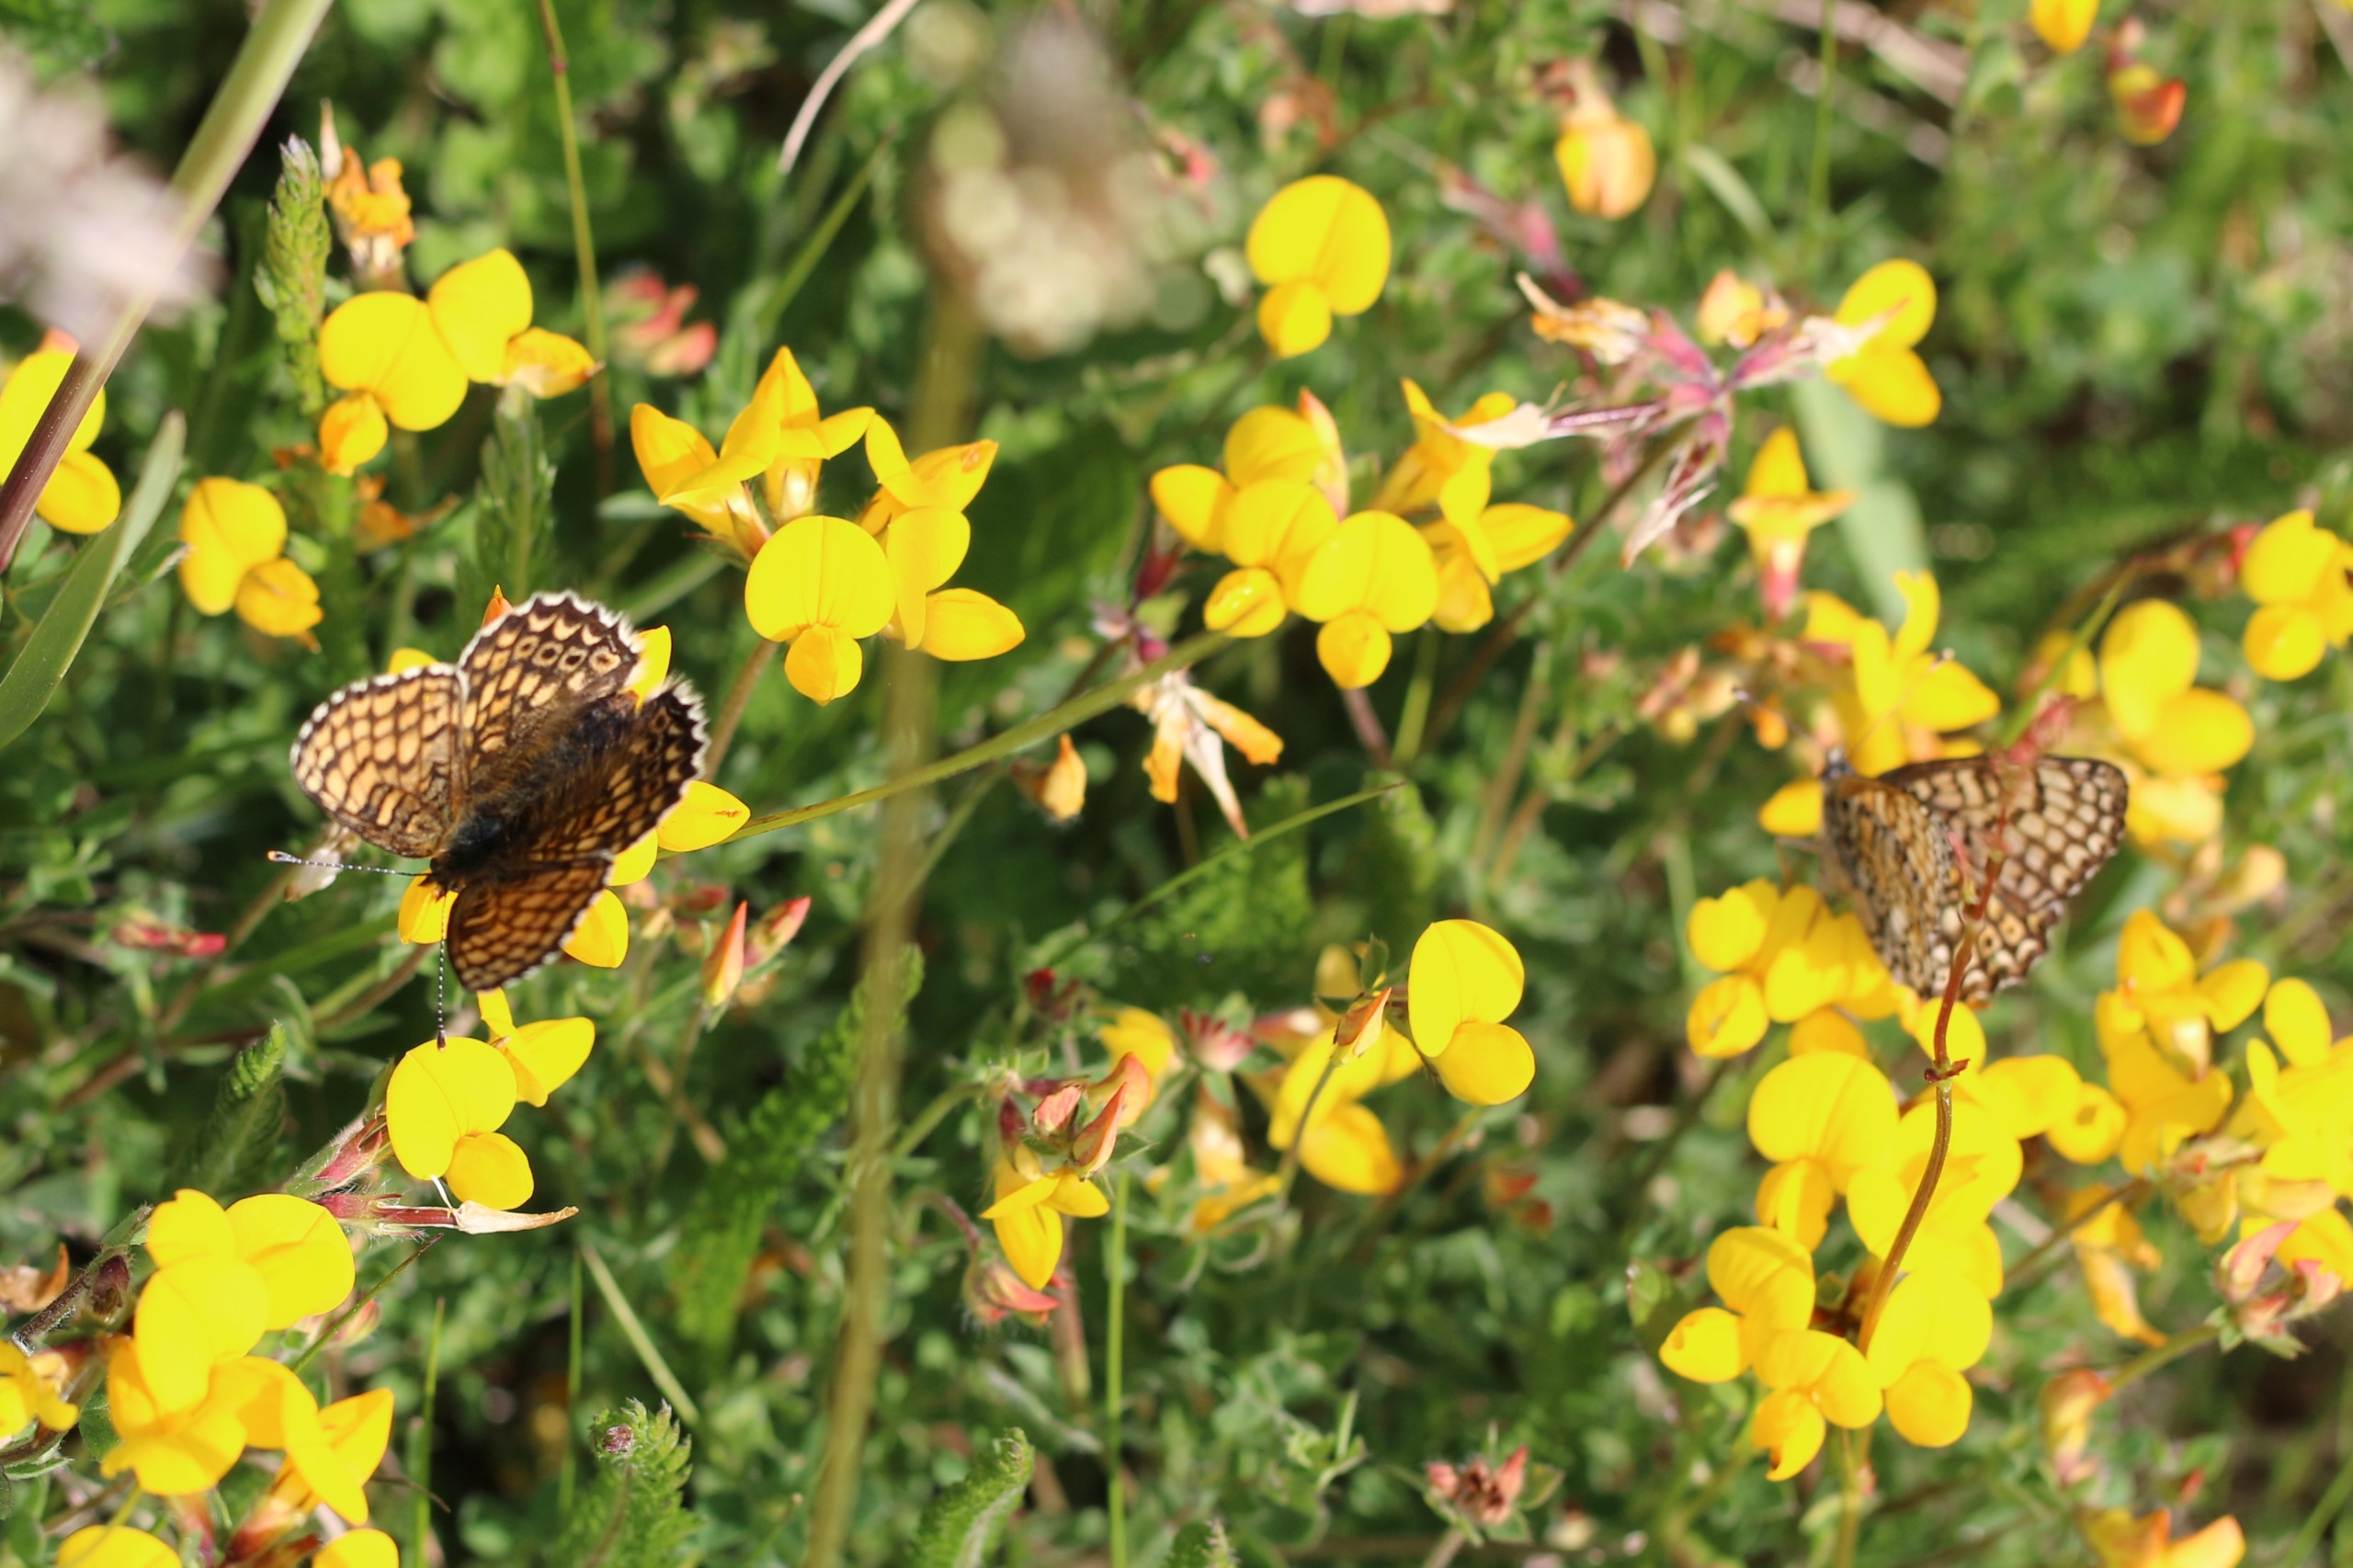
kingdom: Animalia
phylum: Arthropoda
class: Insecta
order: Lepidoptera
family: Nymphalidae
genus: Melitaea
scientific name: Melitaea cinxia
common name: Okkergul pletvinge
